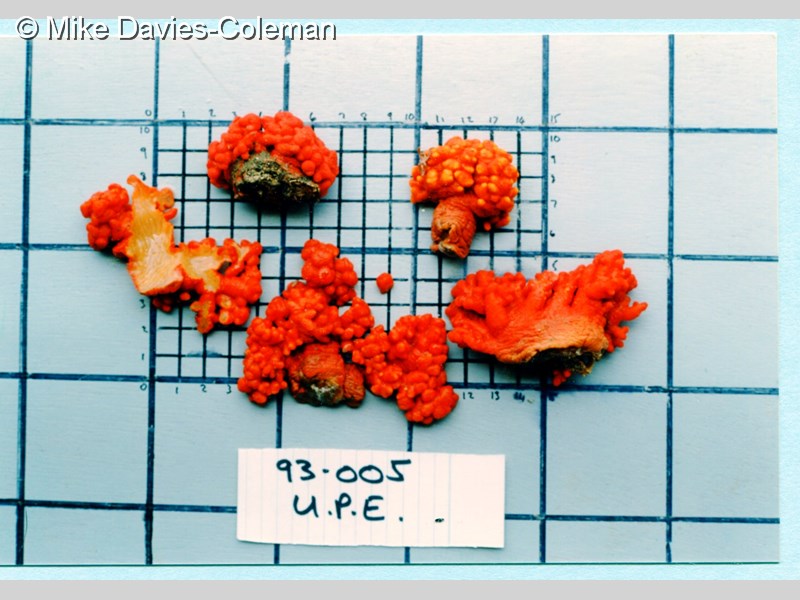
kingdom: Animalia
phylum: Cnidaria
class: Anthozoa
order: Scleralcyonacea
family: Parasphaerascleridae
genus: Parasphaerasclera
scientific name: Parasphaerasclera valdiviae
